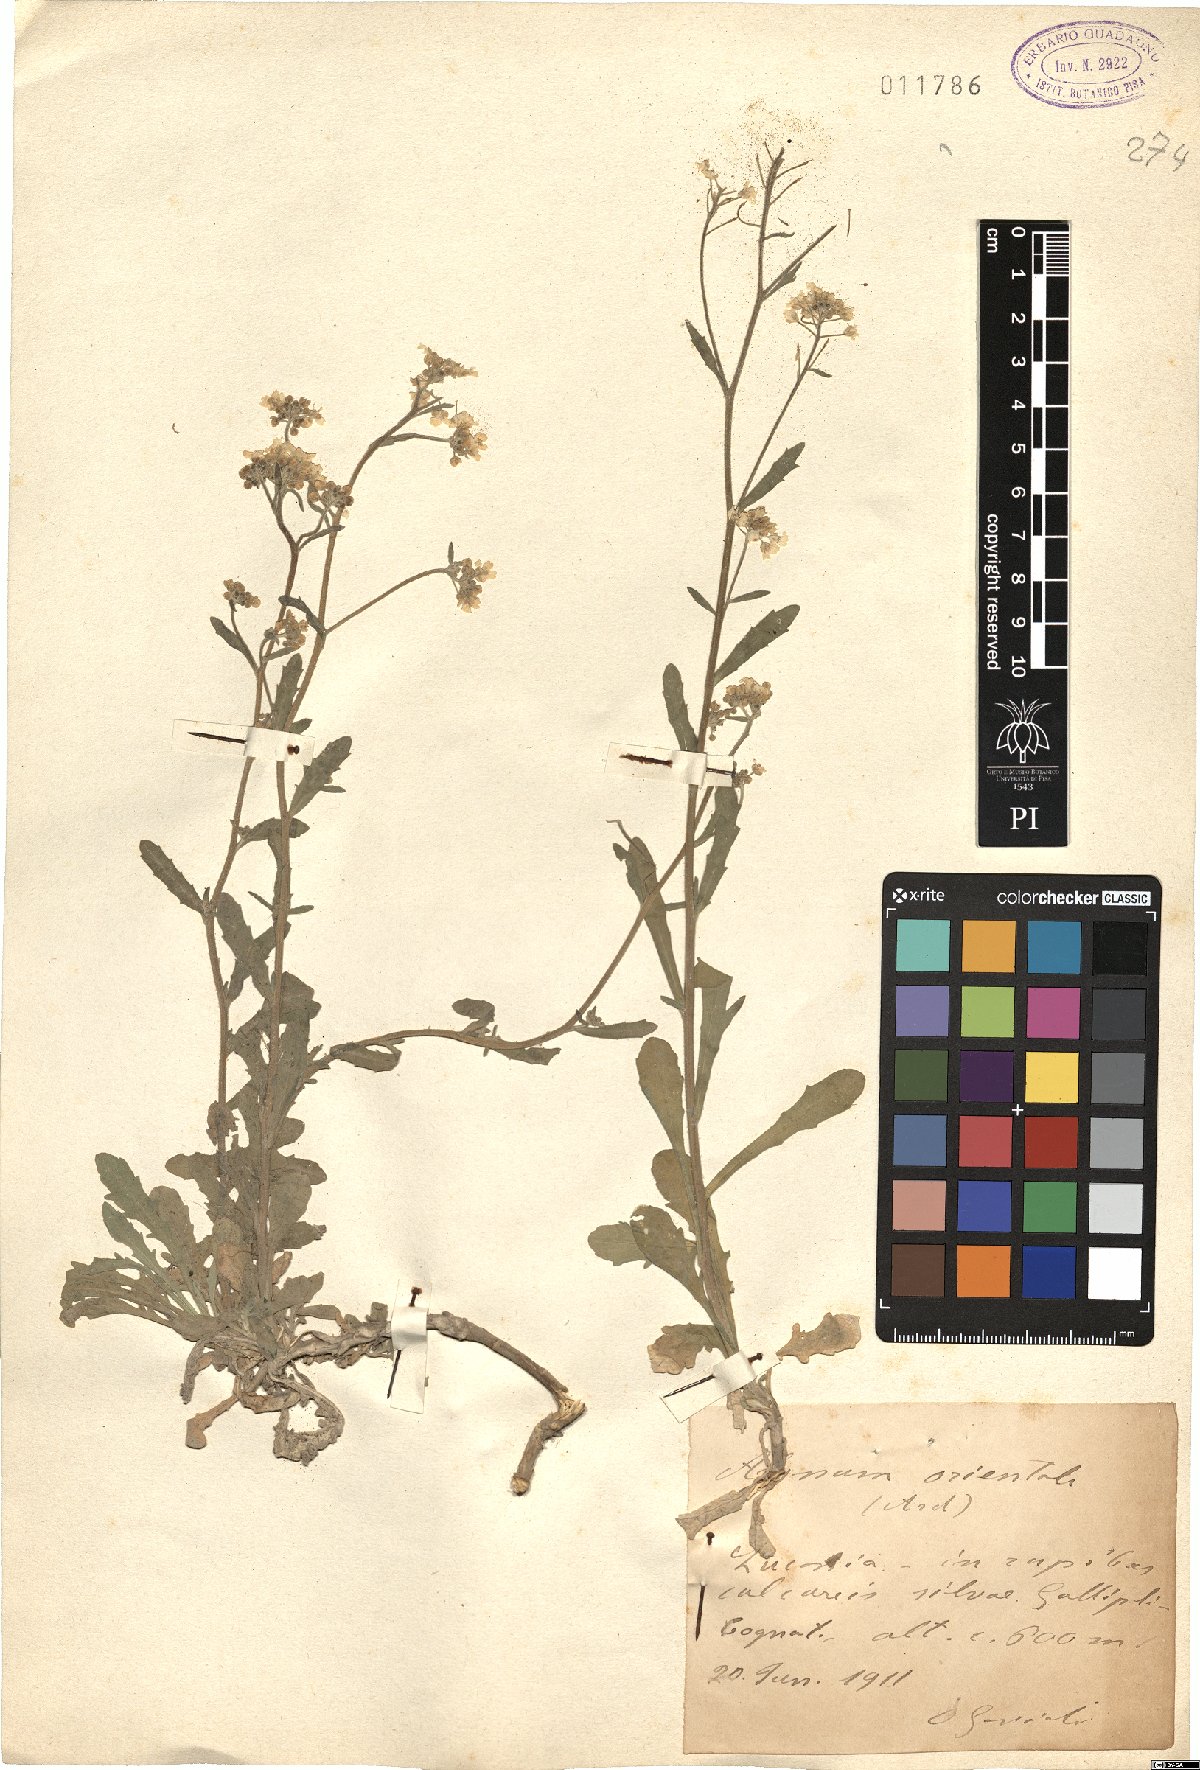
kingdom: Plantae
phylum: Tracheophyta
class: Magnoliopsida
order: Brassicales
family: Brassicaceae
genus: Aurinia
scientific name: Aurinia saxatilis
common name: Golden-tuft alyssum
